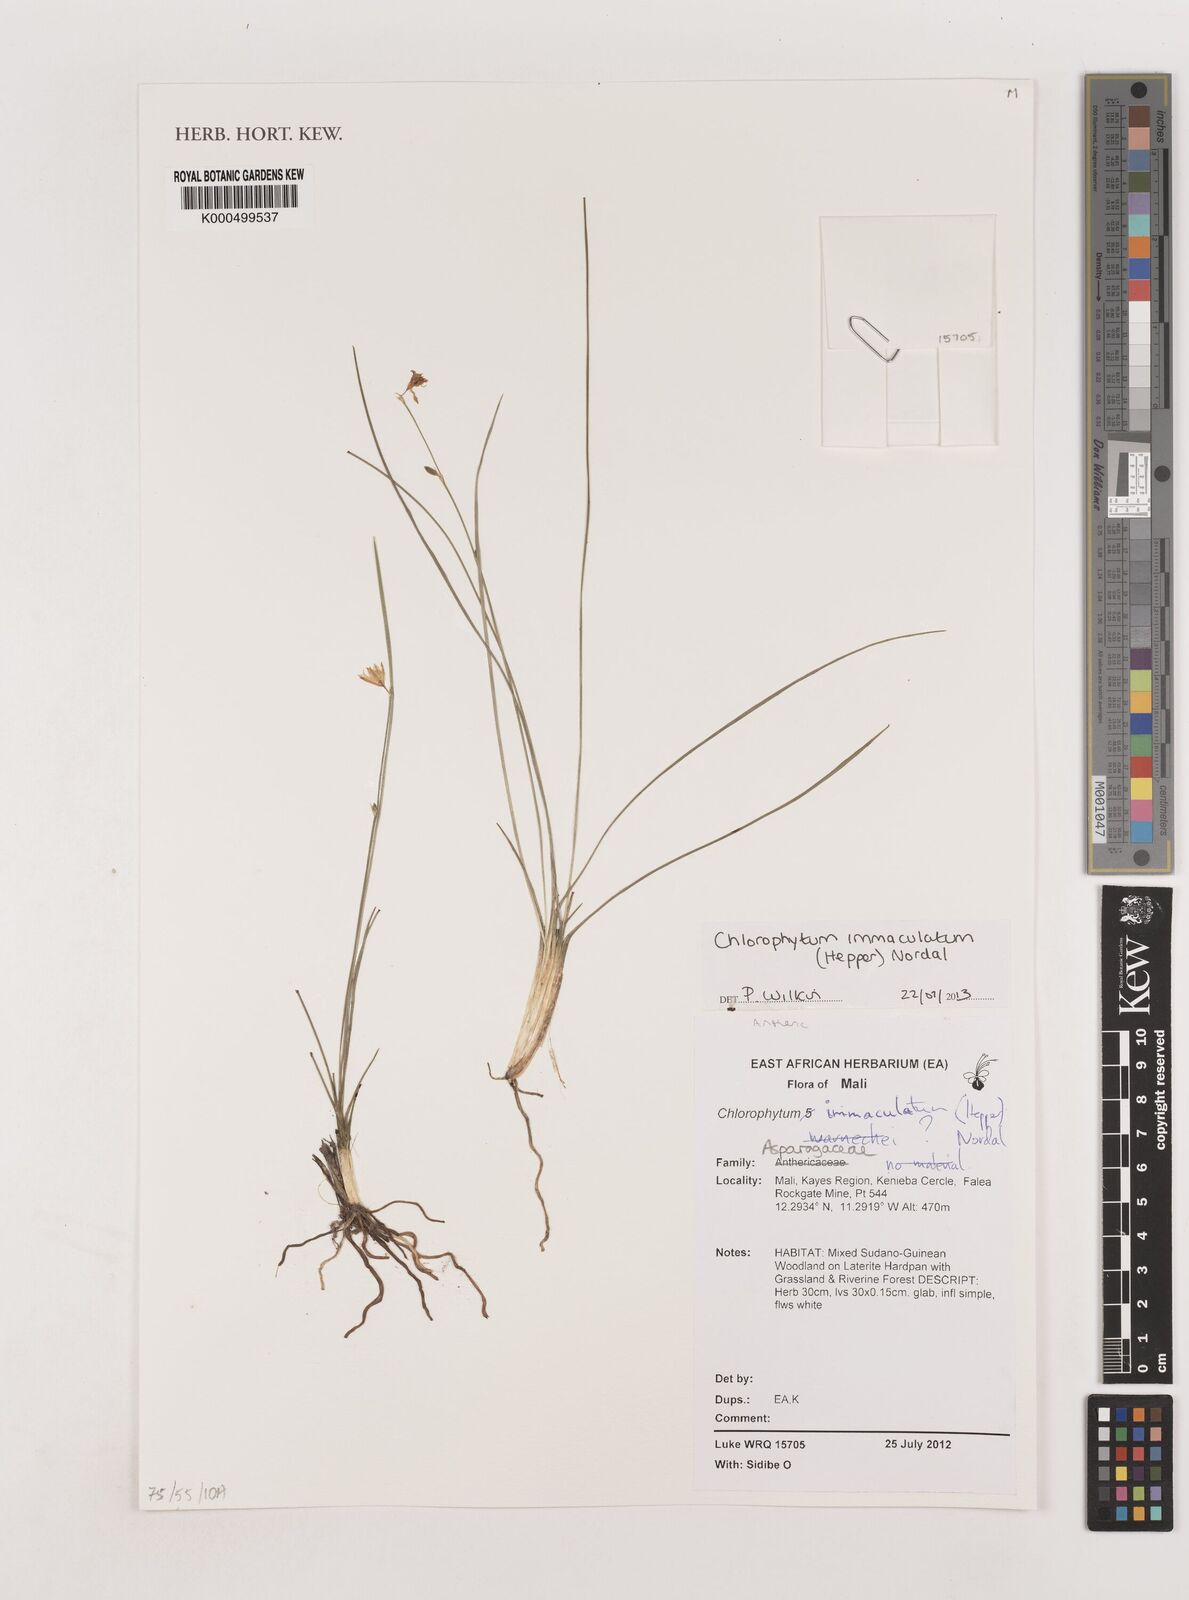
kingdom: Plantae
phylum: Tracheophyta
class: Liliopsida
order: Asparagales
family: Asparagaceae
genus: Chlorophytum
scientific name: Chlorophytum immaculatum
